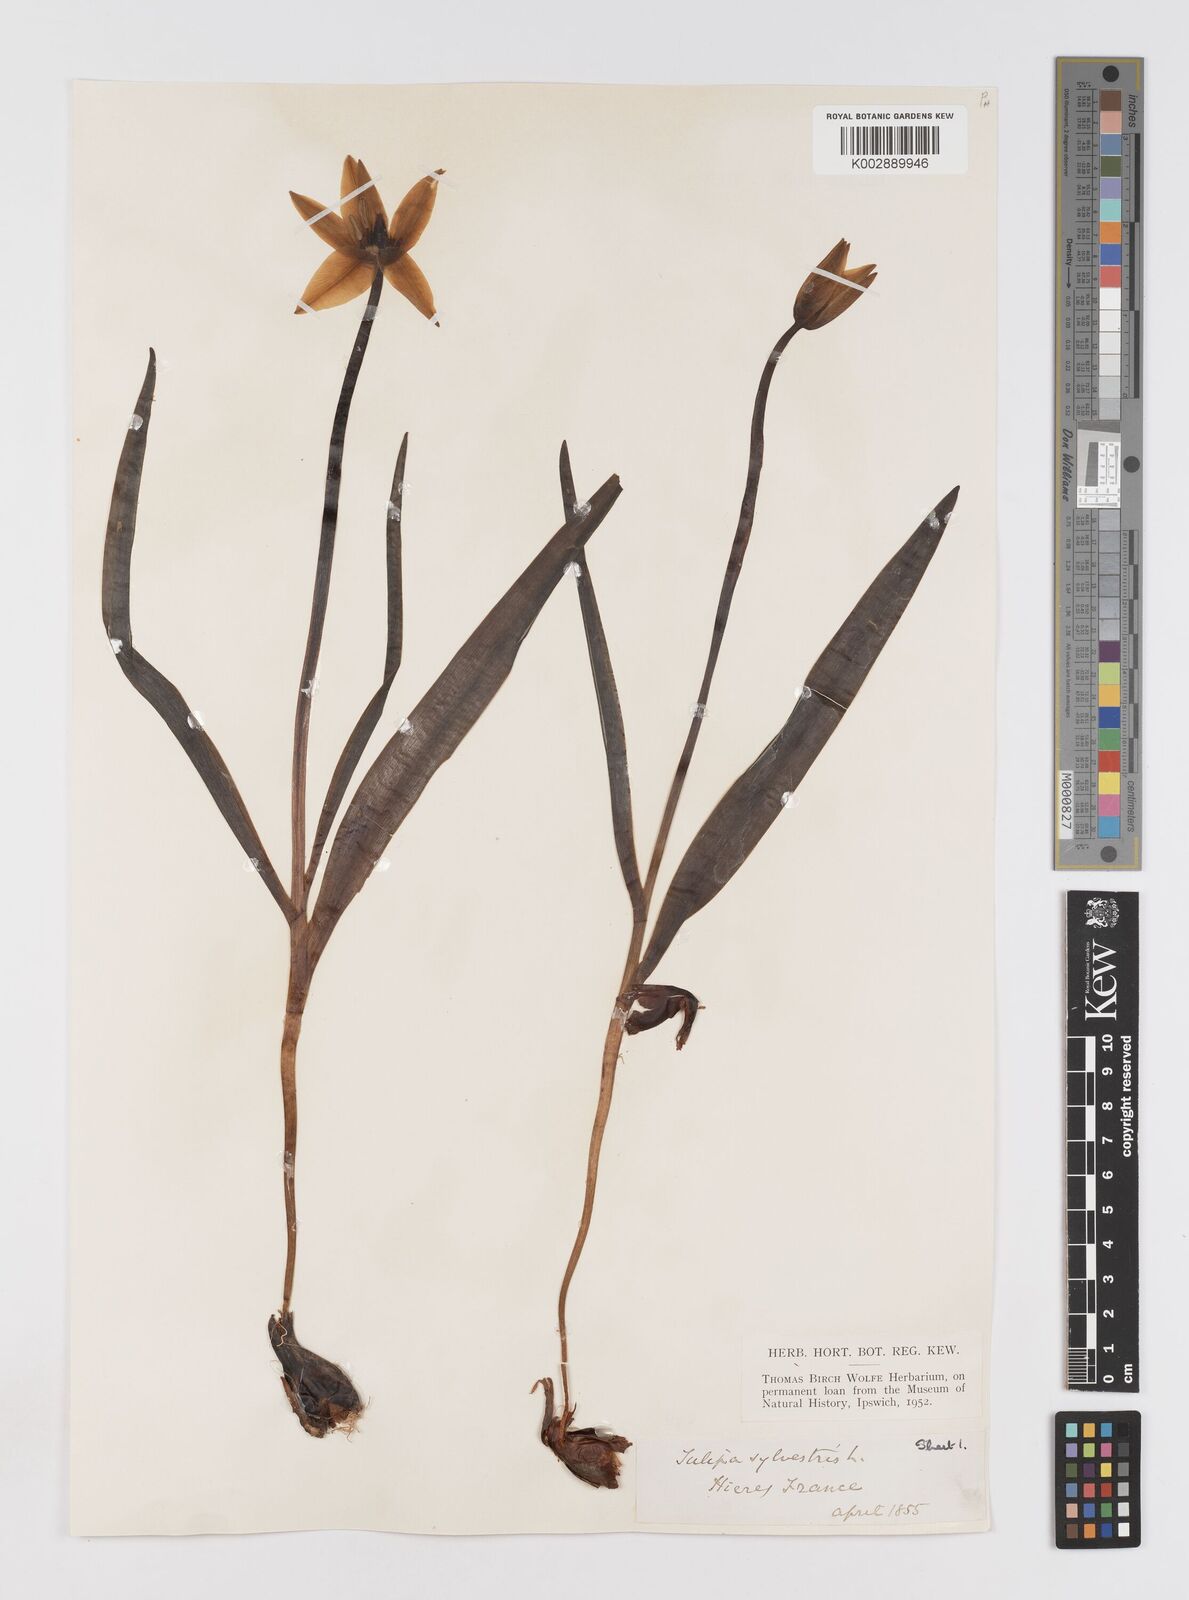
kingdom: Plantae
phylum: Tracheophyta
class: Liliopsida
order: Liliales
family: Liliaceae
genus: Tulipa
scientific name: Tulipa sylvestris
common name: Wild tulip
